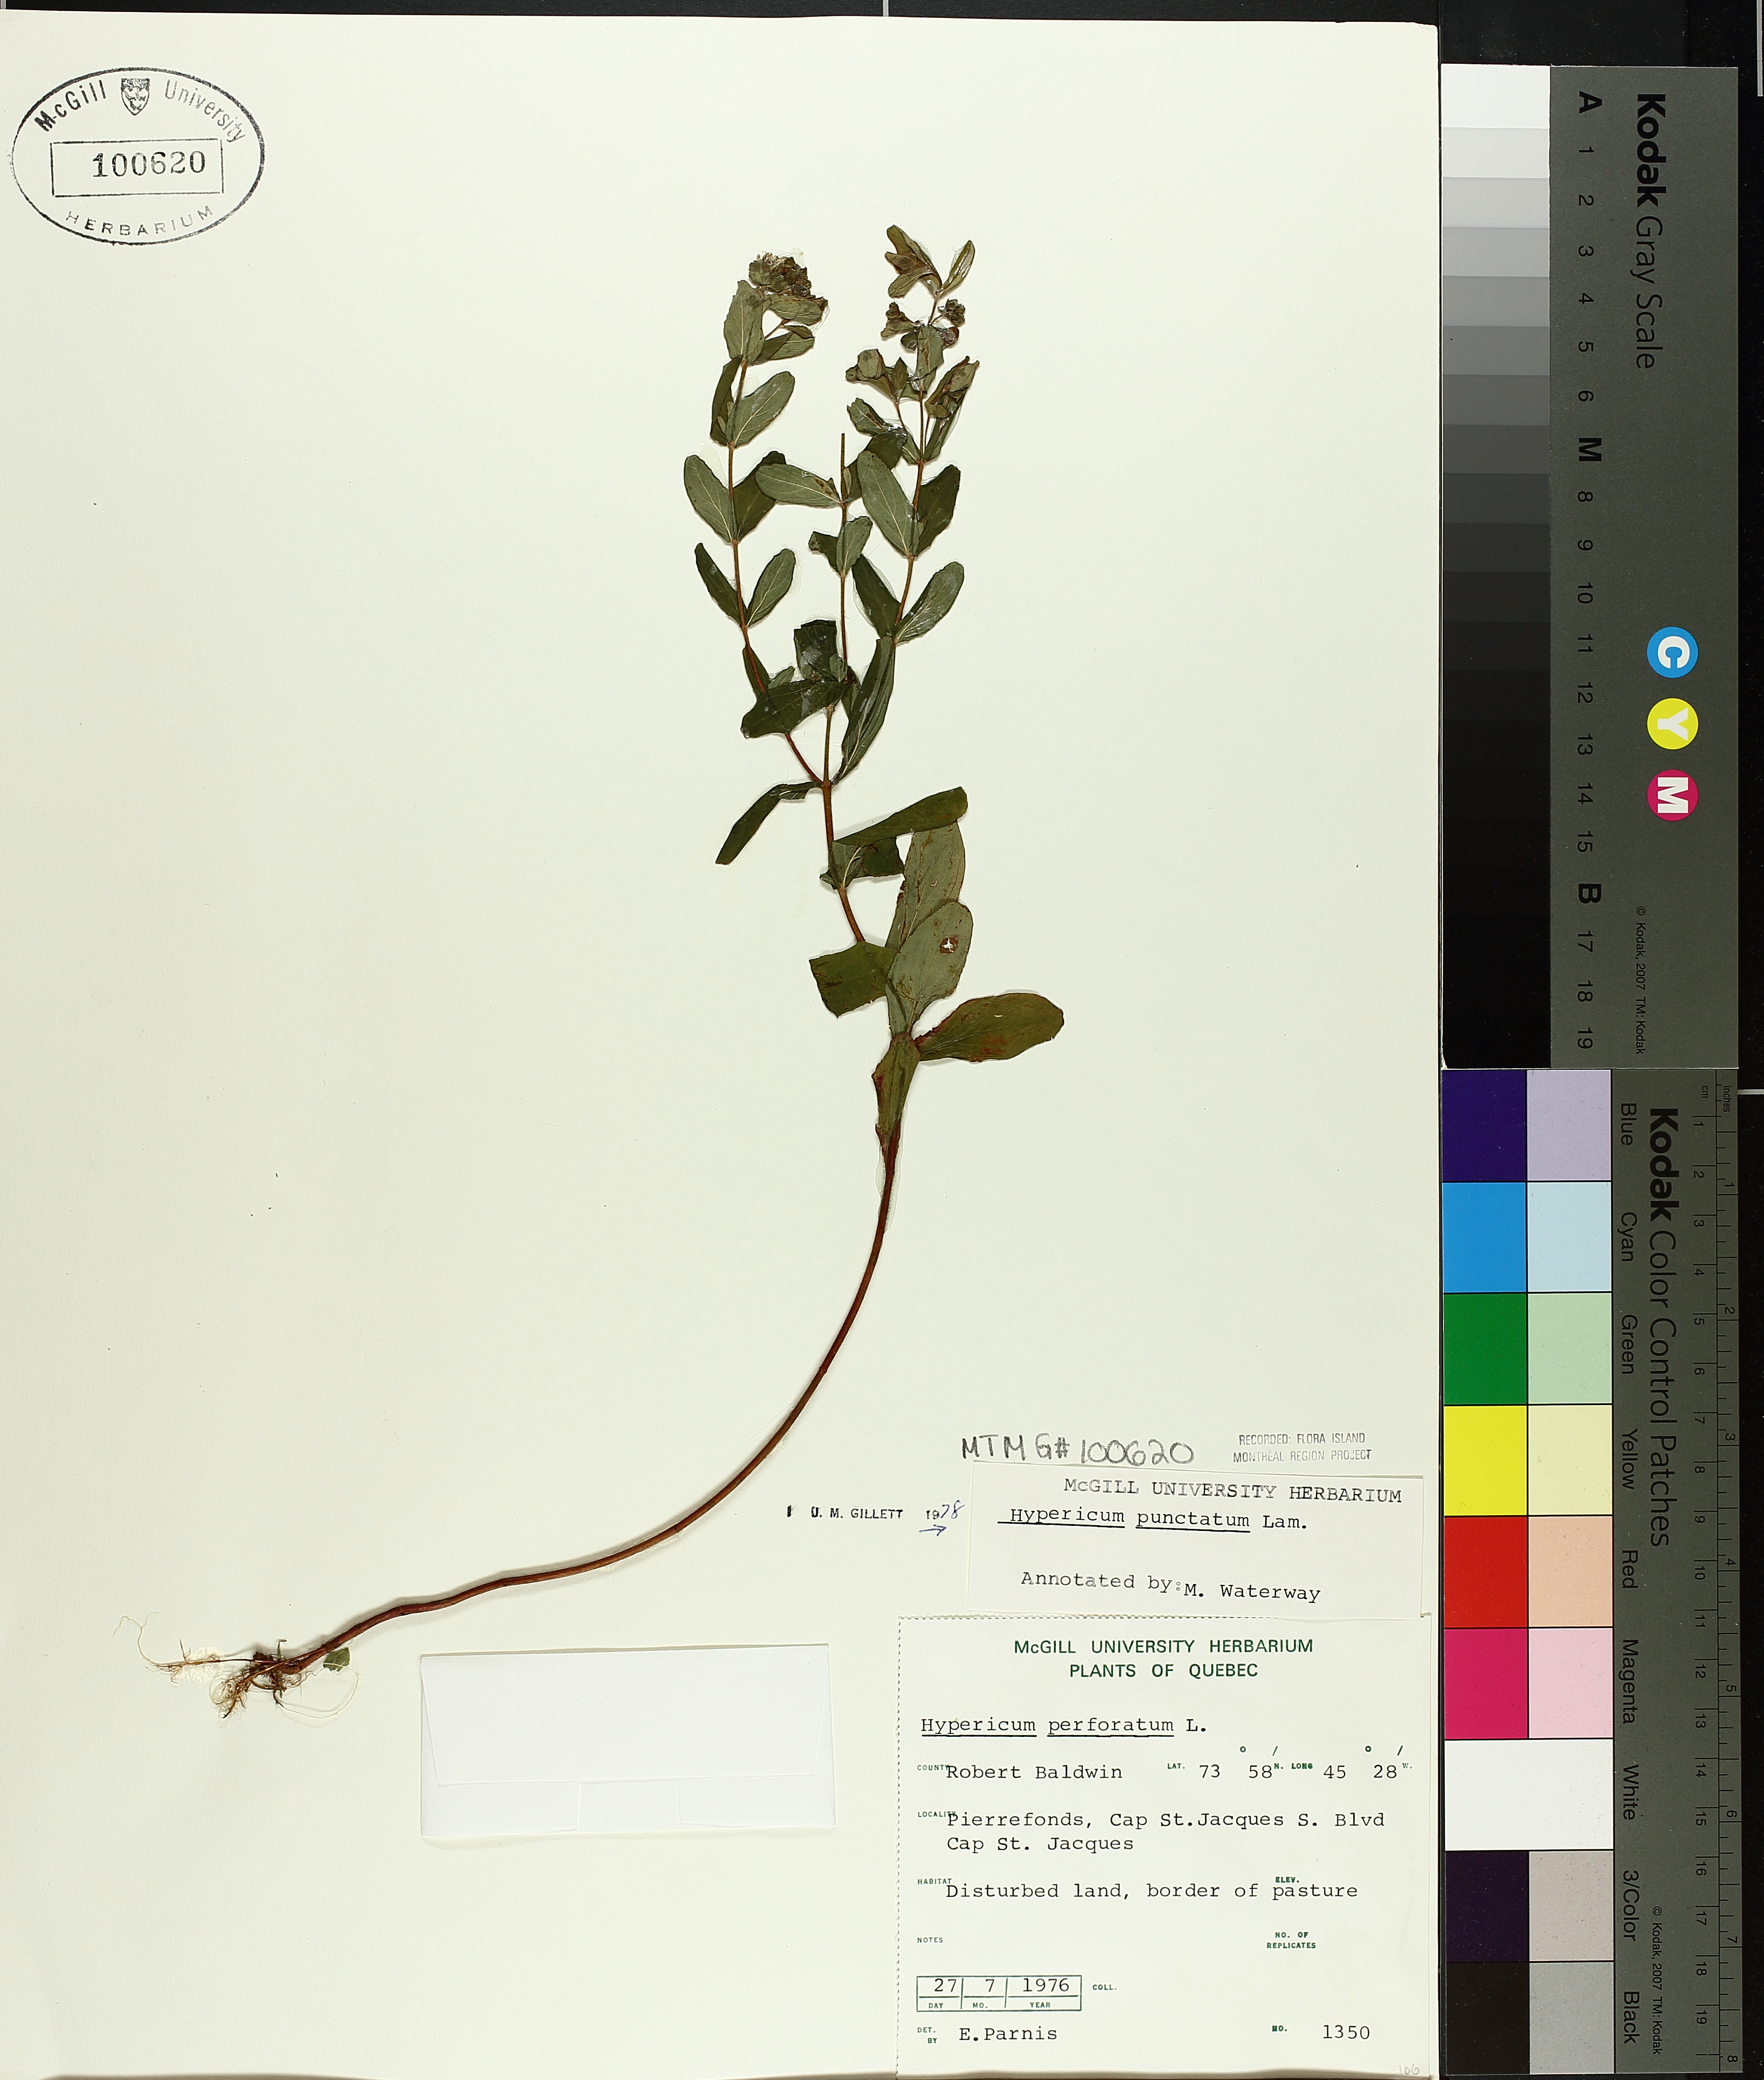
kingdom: Plantae
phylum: Tracheophyta
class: Magnoliopsida
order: Malpighiales
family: Hypericaceae
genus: Hypericum
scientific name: Hypericum punctatum
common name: Spotted st. john's-wort
